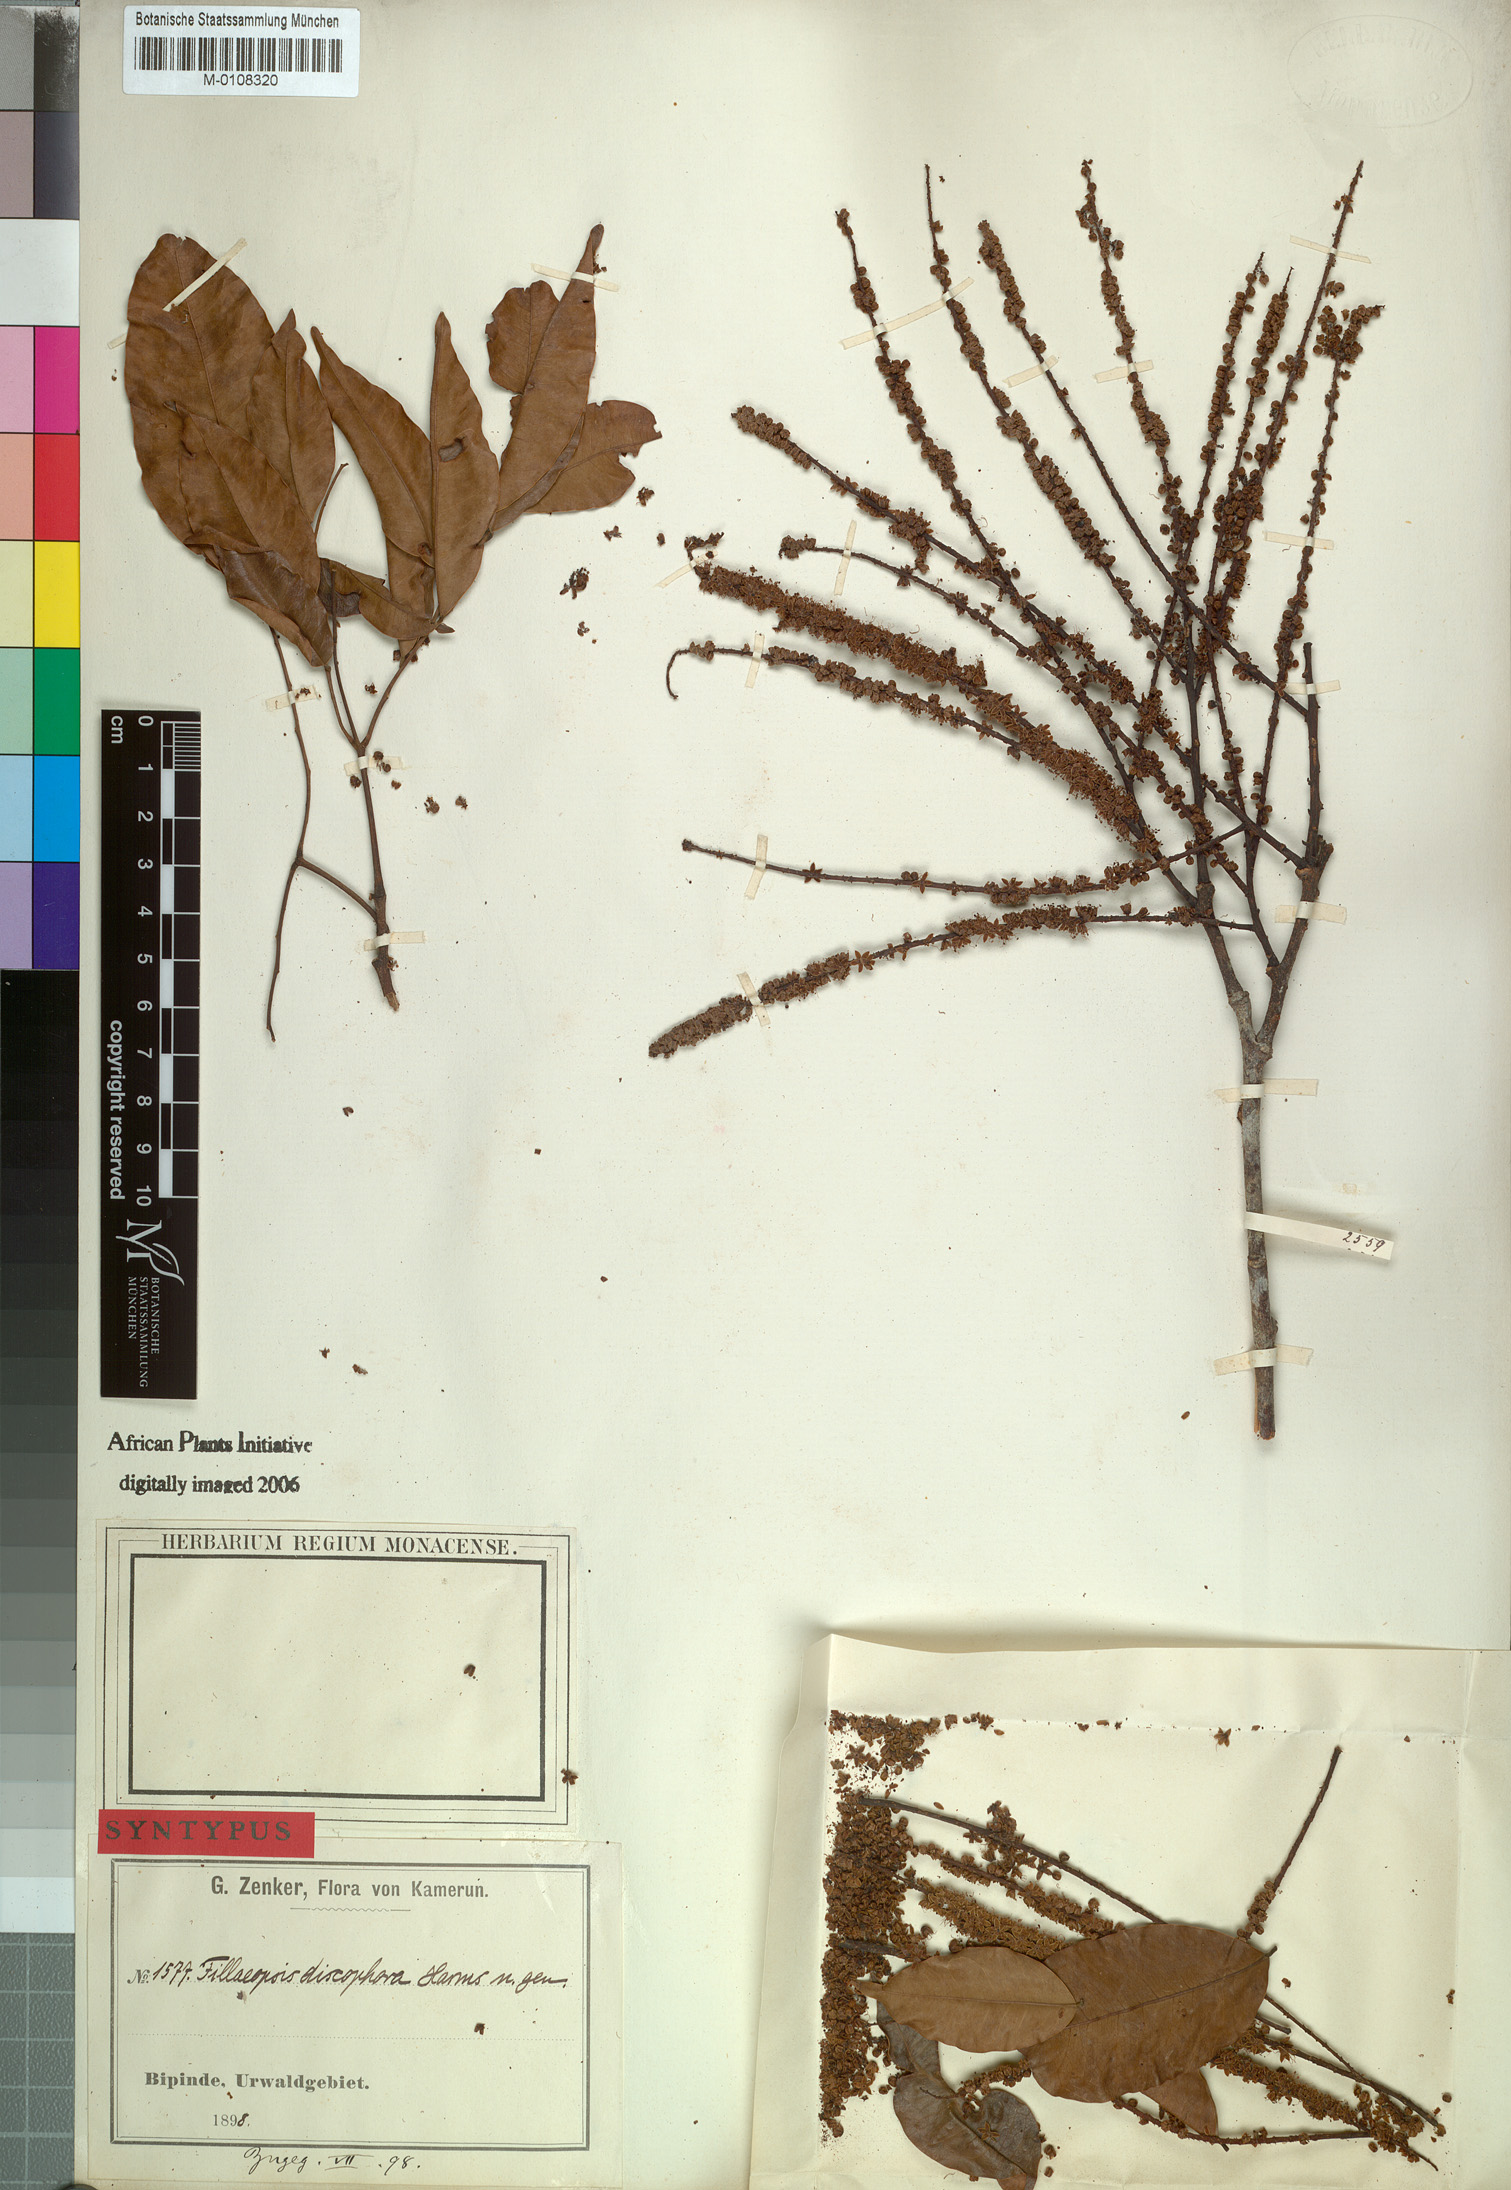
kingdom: Plantae
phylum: Tracheophyta
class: Magnoliopsida
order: Fabales
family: Fabaceae
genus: Fillaeopsis
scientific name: Fillaeopsis discophora
